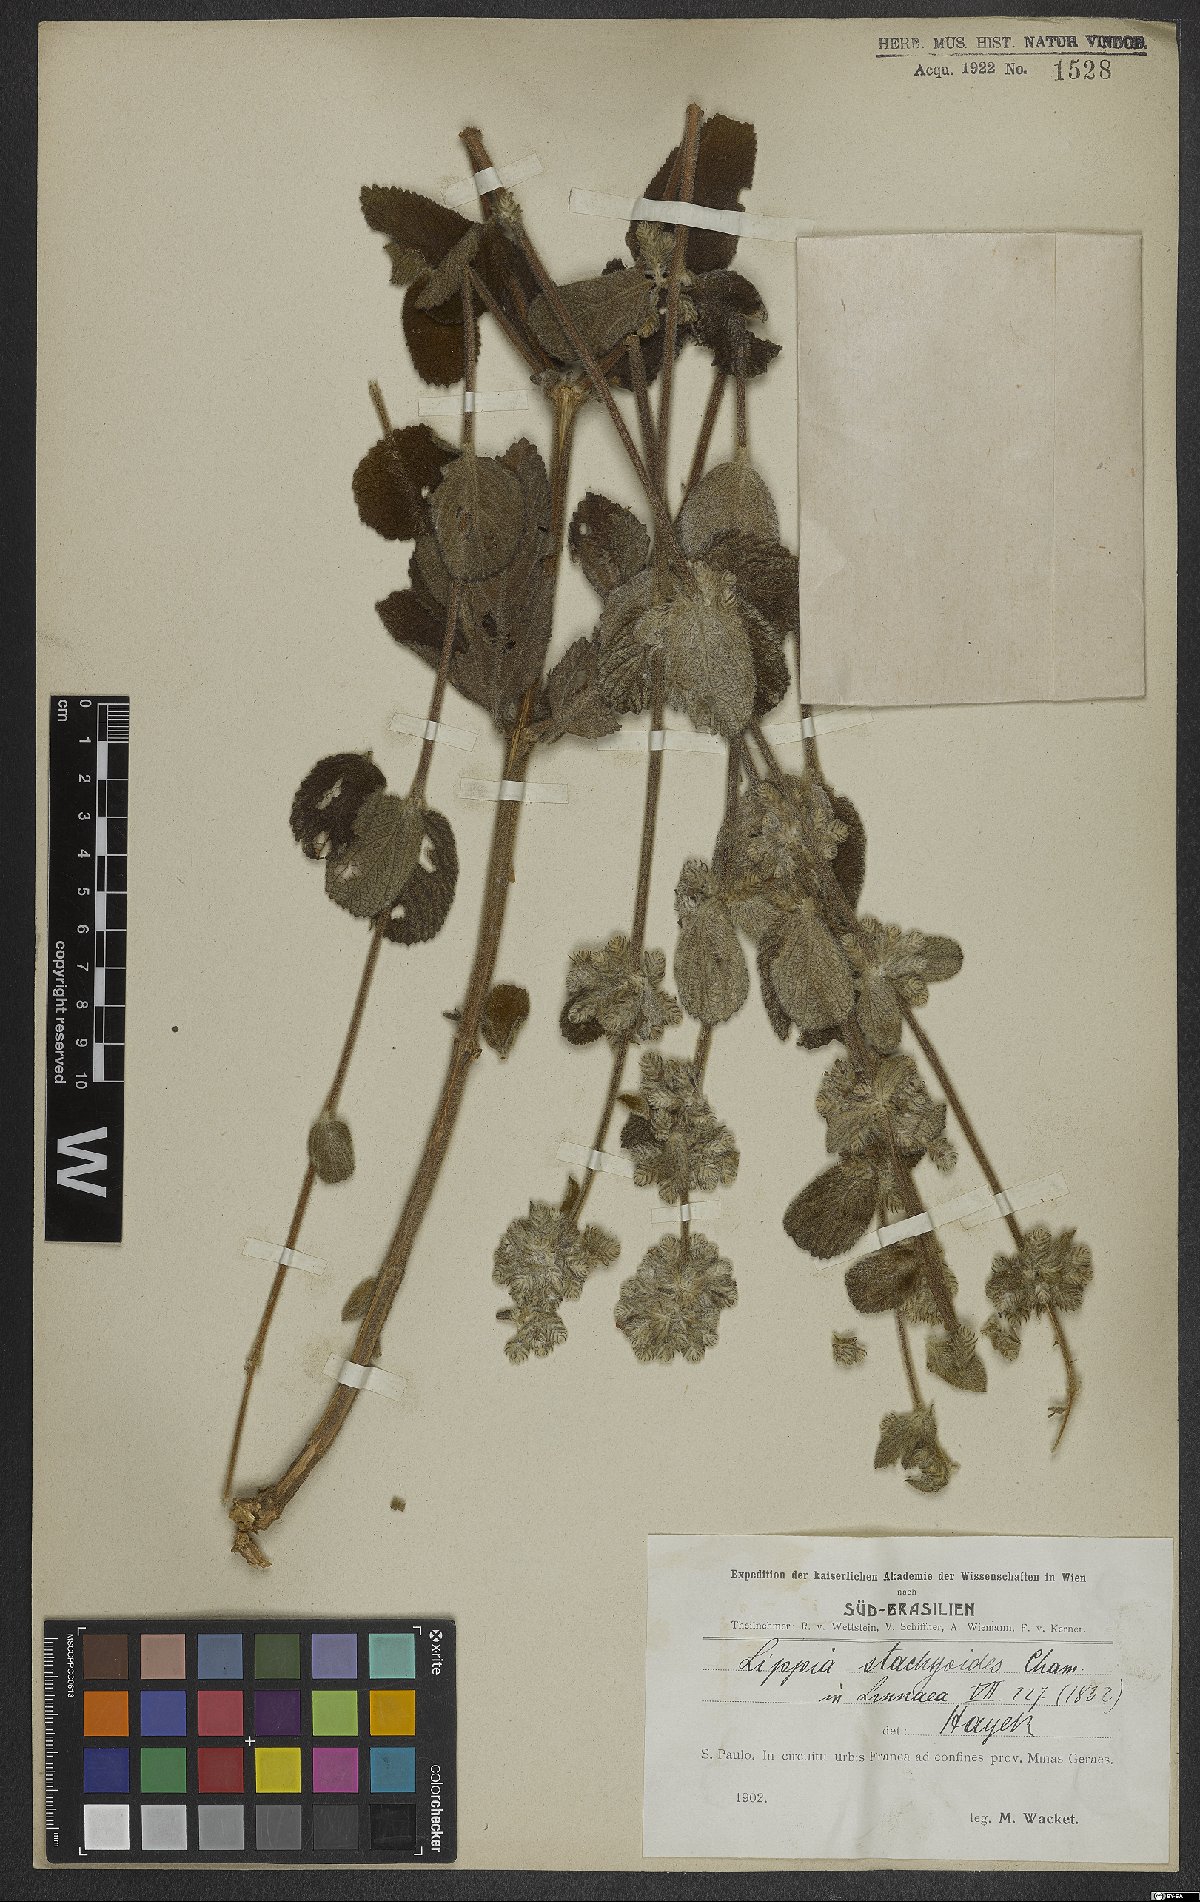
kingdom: Plantae
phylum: Tracheophyta
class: Magnoliopsida
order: Lamiales
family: Verbenaceae
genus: Lippia
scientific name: Lippia stachyoides
